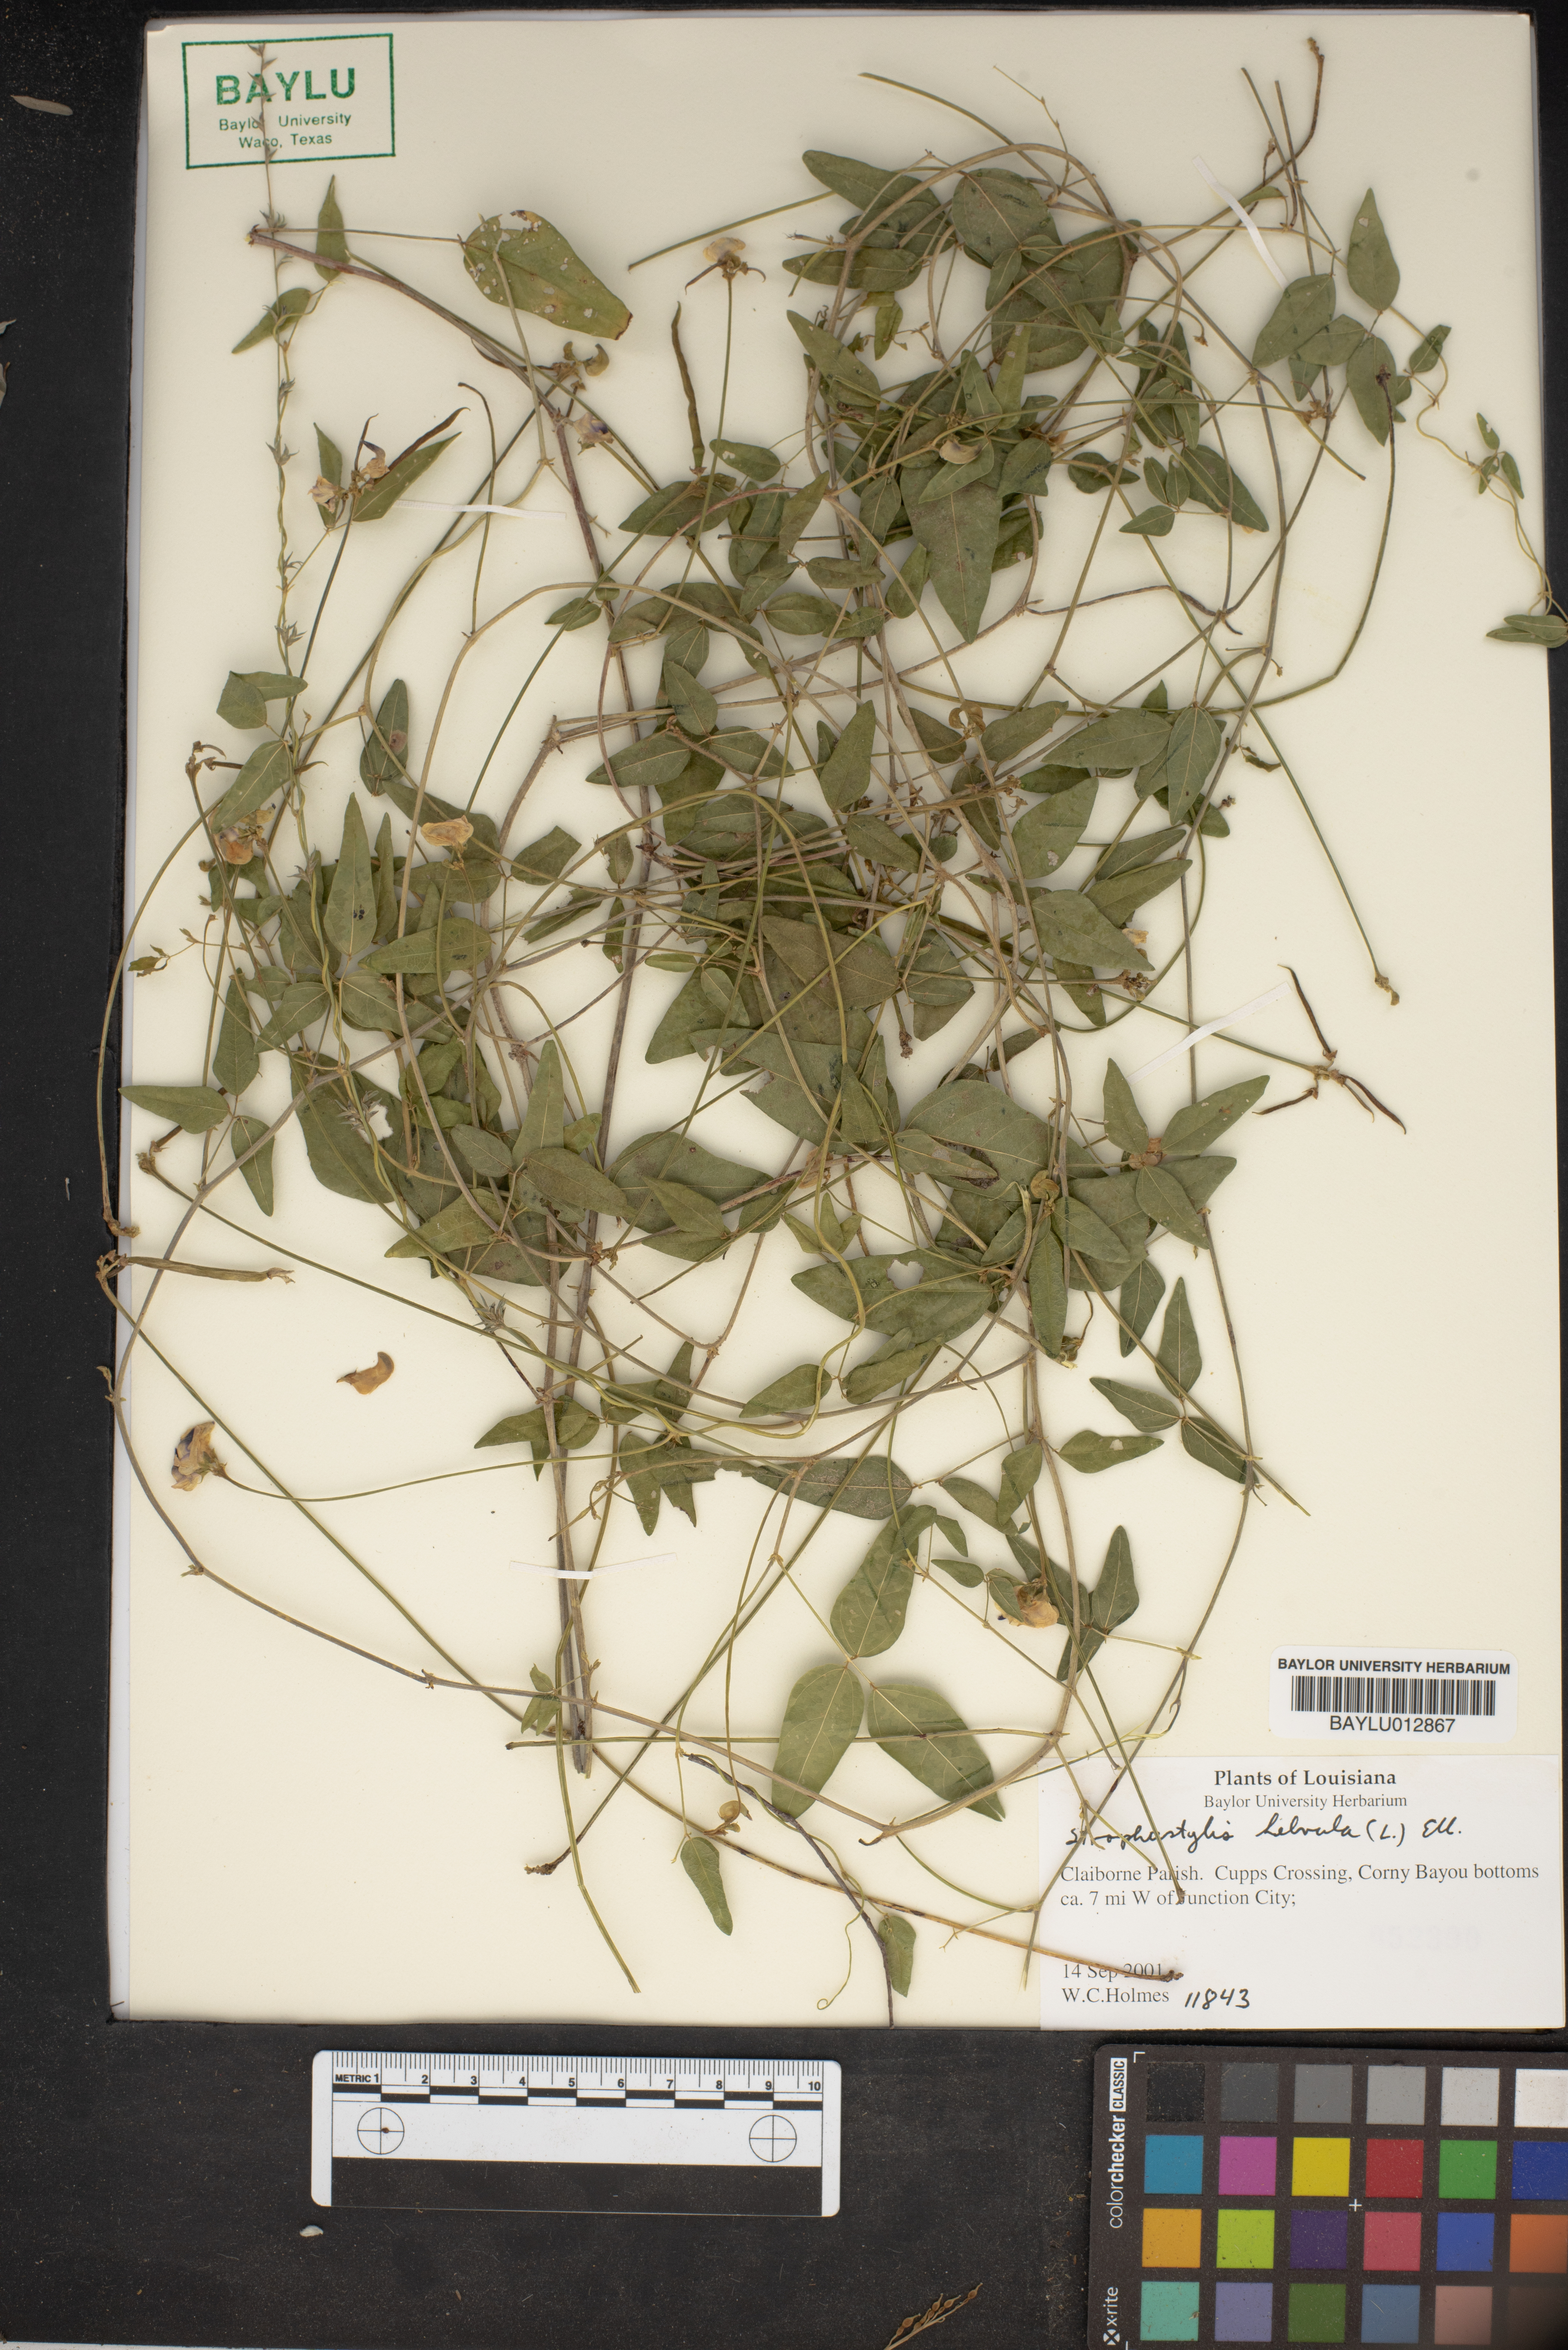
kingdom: Plantae
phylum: Tracheophyta
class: Magnoliopsida
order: Fabales
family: Fabaceae
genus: Strophostyles
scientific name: Strophostyles helvola
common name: Trailing wild bean
